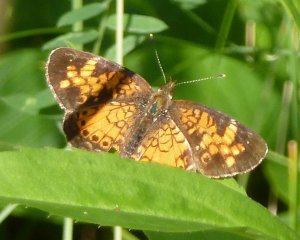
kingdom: Animalia
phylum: Arthropoda
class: Insecta
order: Lepidoptera
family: Nymphalidae
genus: Phyciodes
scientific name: Phyciodes tharos
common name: Northern Crescent
